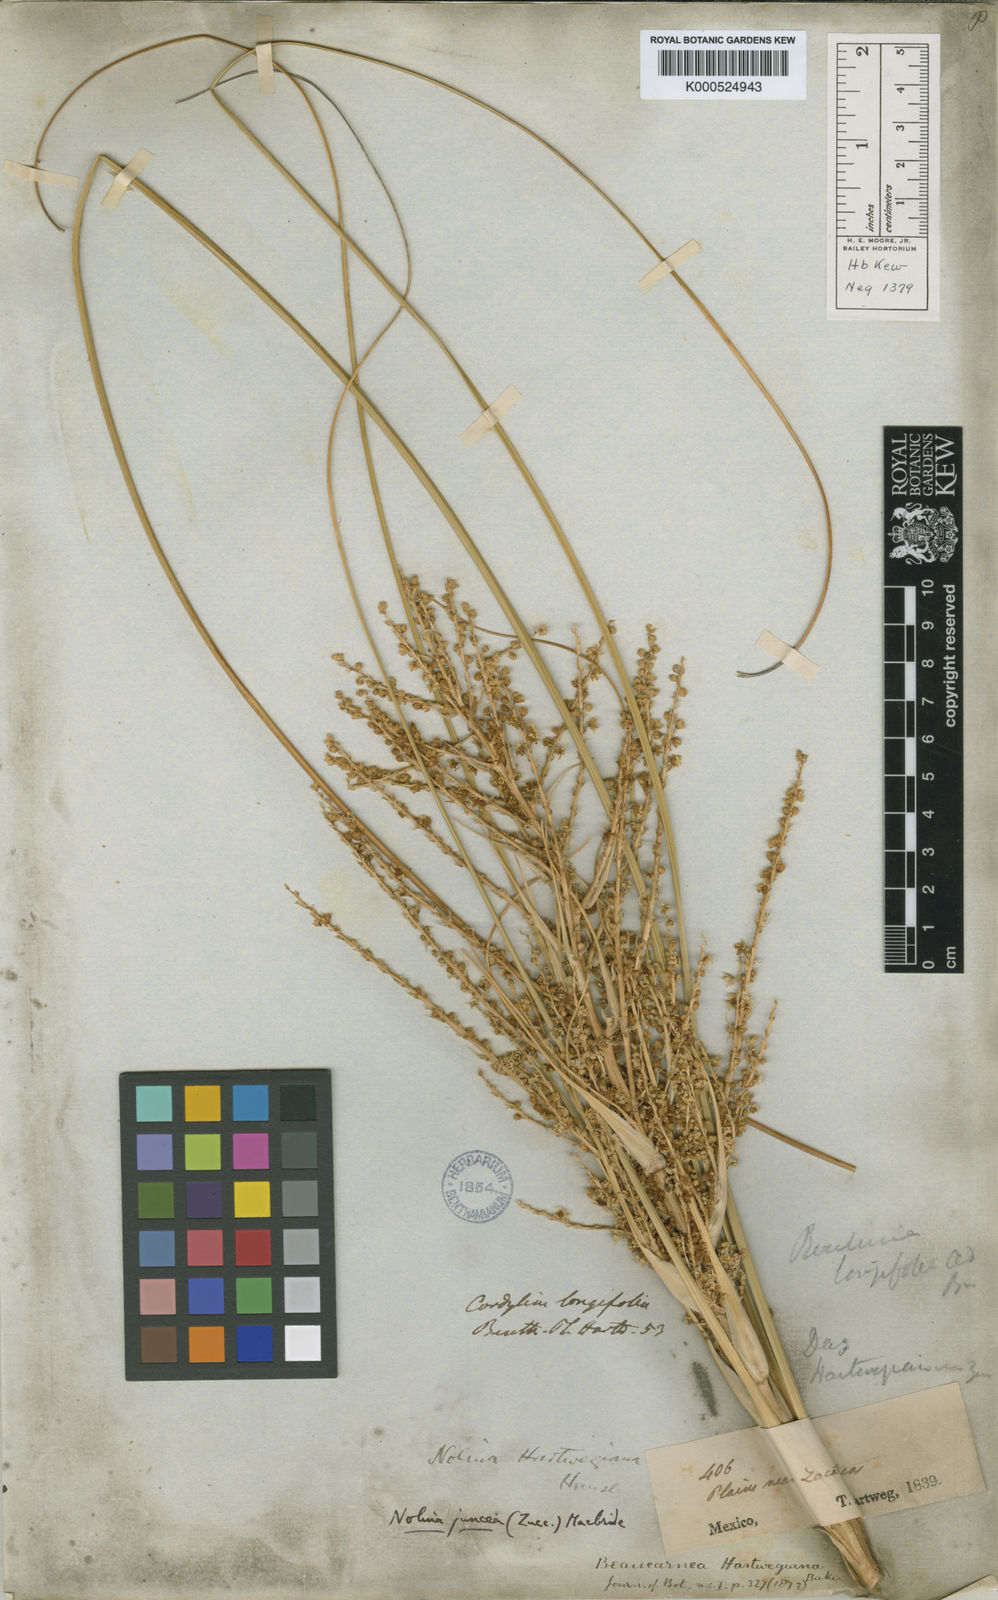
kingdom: Plantae
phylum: Tracheophyta
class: Liliopsida
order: Asparagales
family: Asparagaceae
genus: Nolina
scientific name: Nolina juncea
